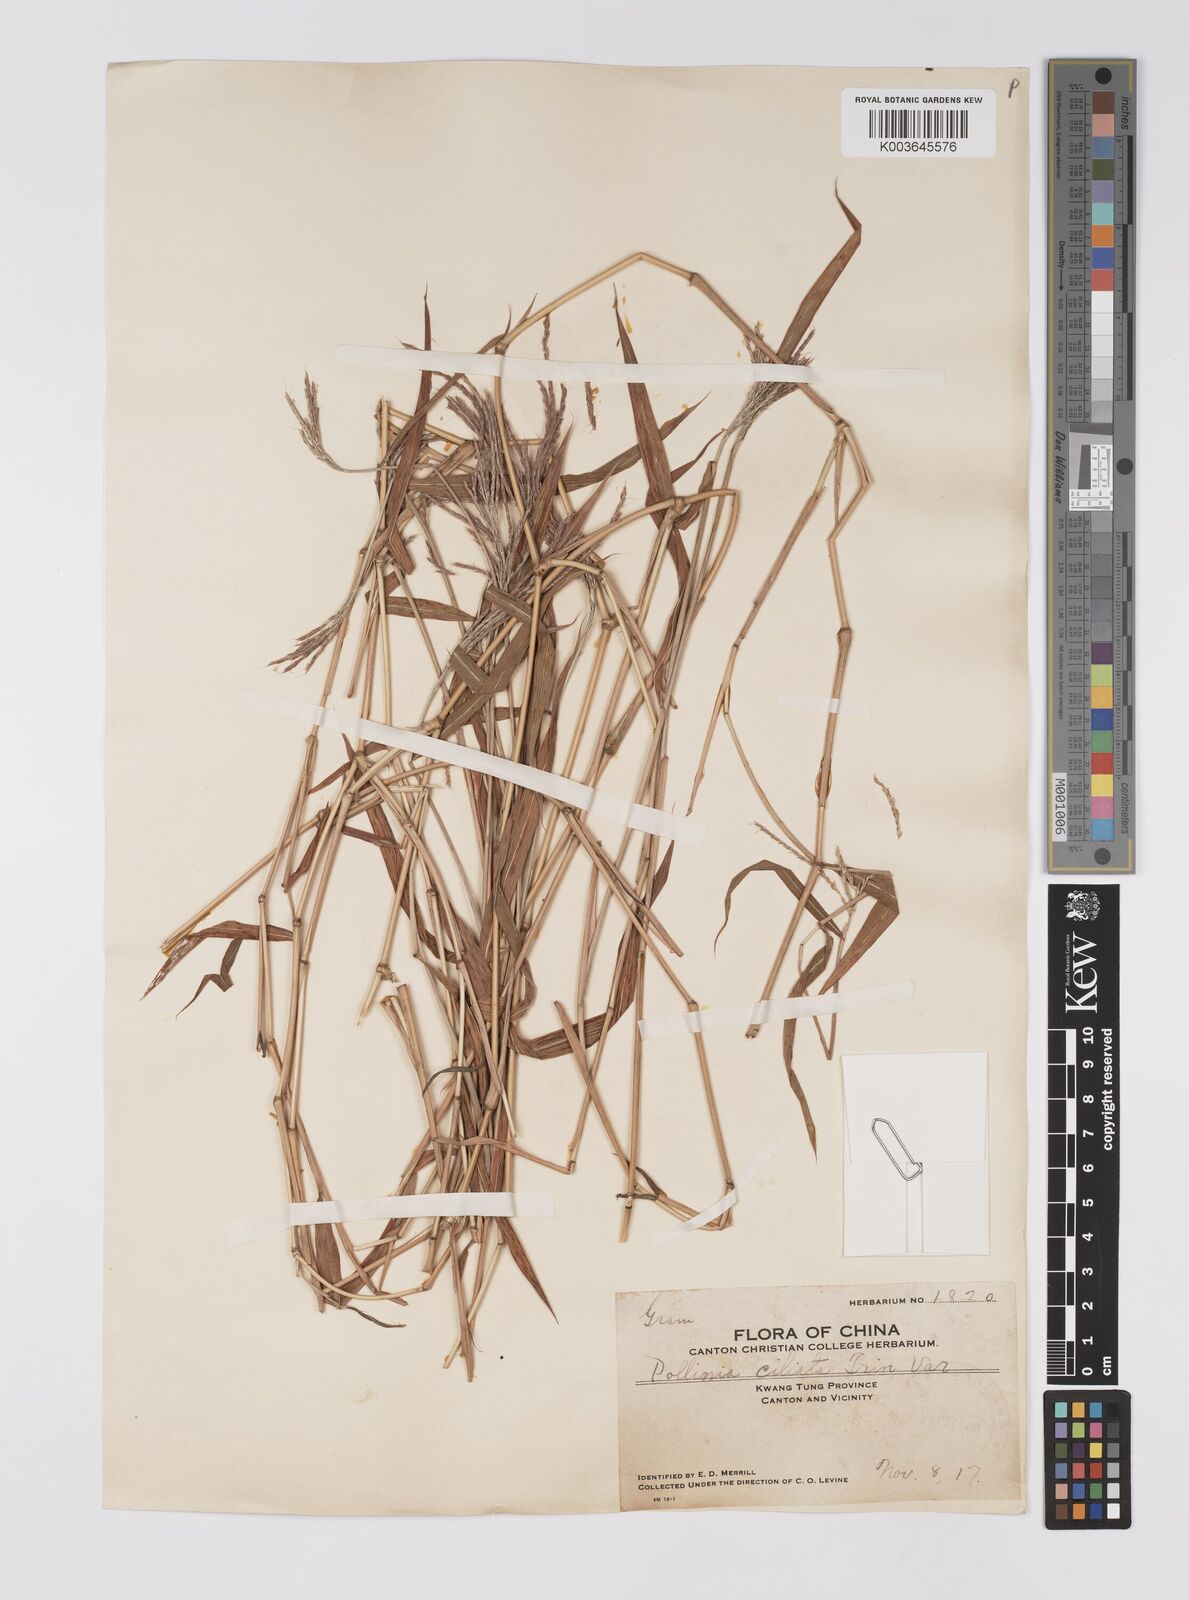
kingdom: Plantae
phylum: Tracheophyta
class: Liliopsida
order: Poales
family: Poaceae
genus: Microstegium
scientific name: Microstegium fasciculatum
